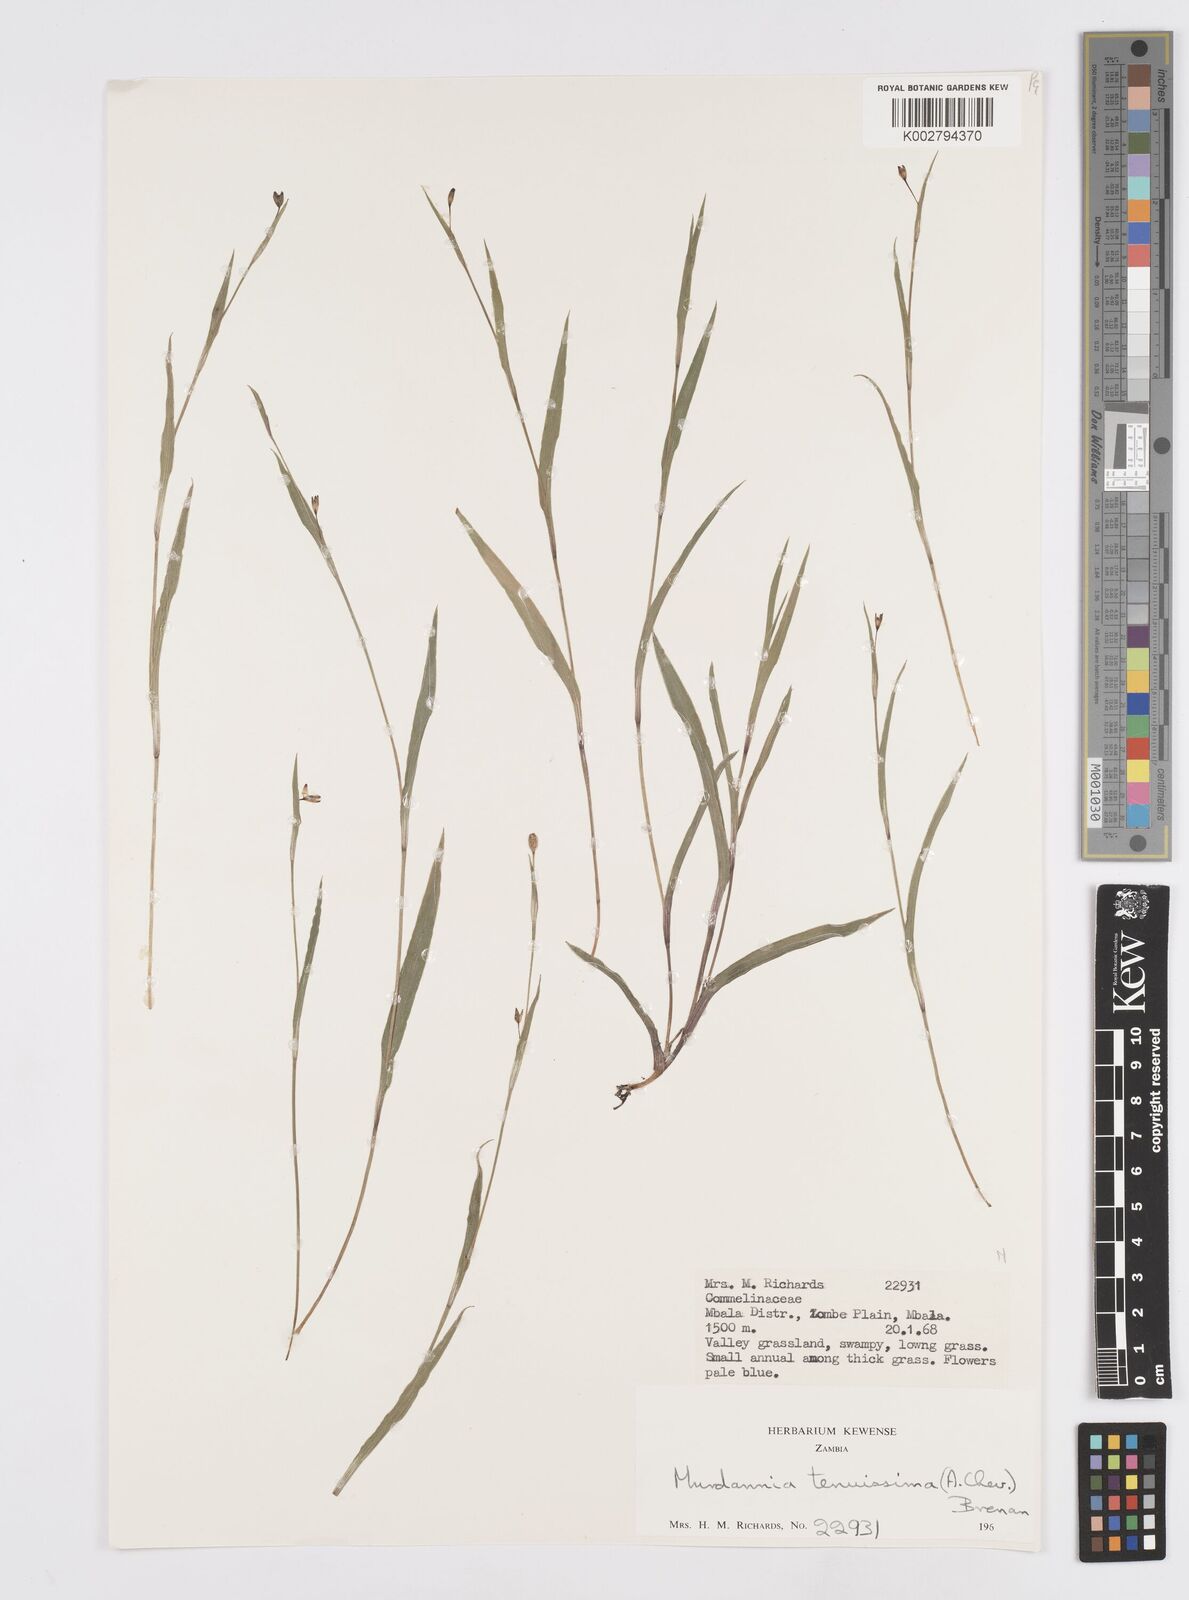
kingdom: Plantae
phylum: Tracheophyta
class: Liliopsida
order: Commelinales
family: Commelinaceae
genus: Murdannia
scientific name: Murdannia tenuissima
